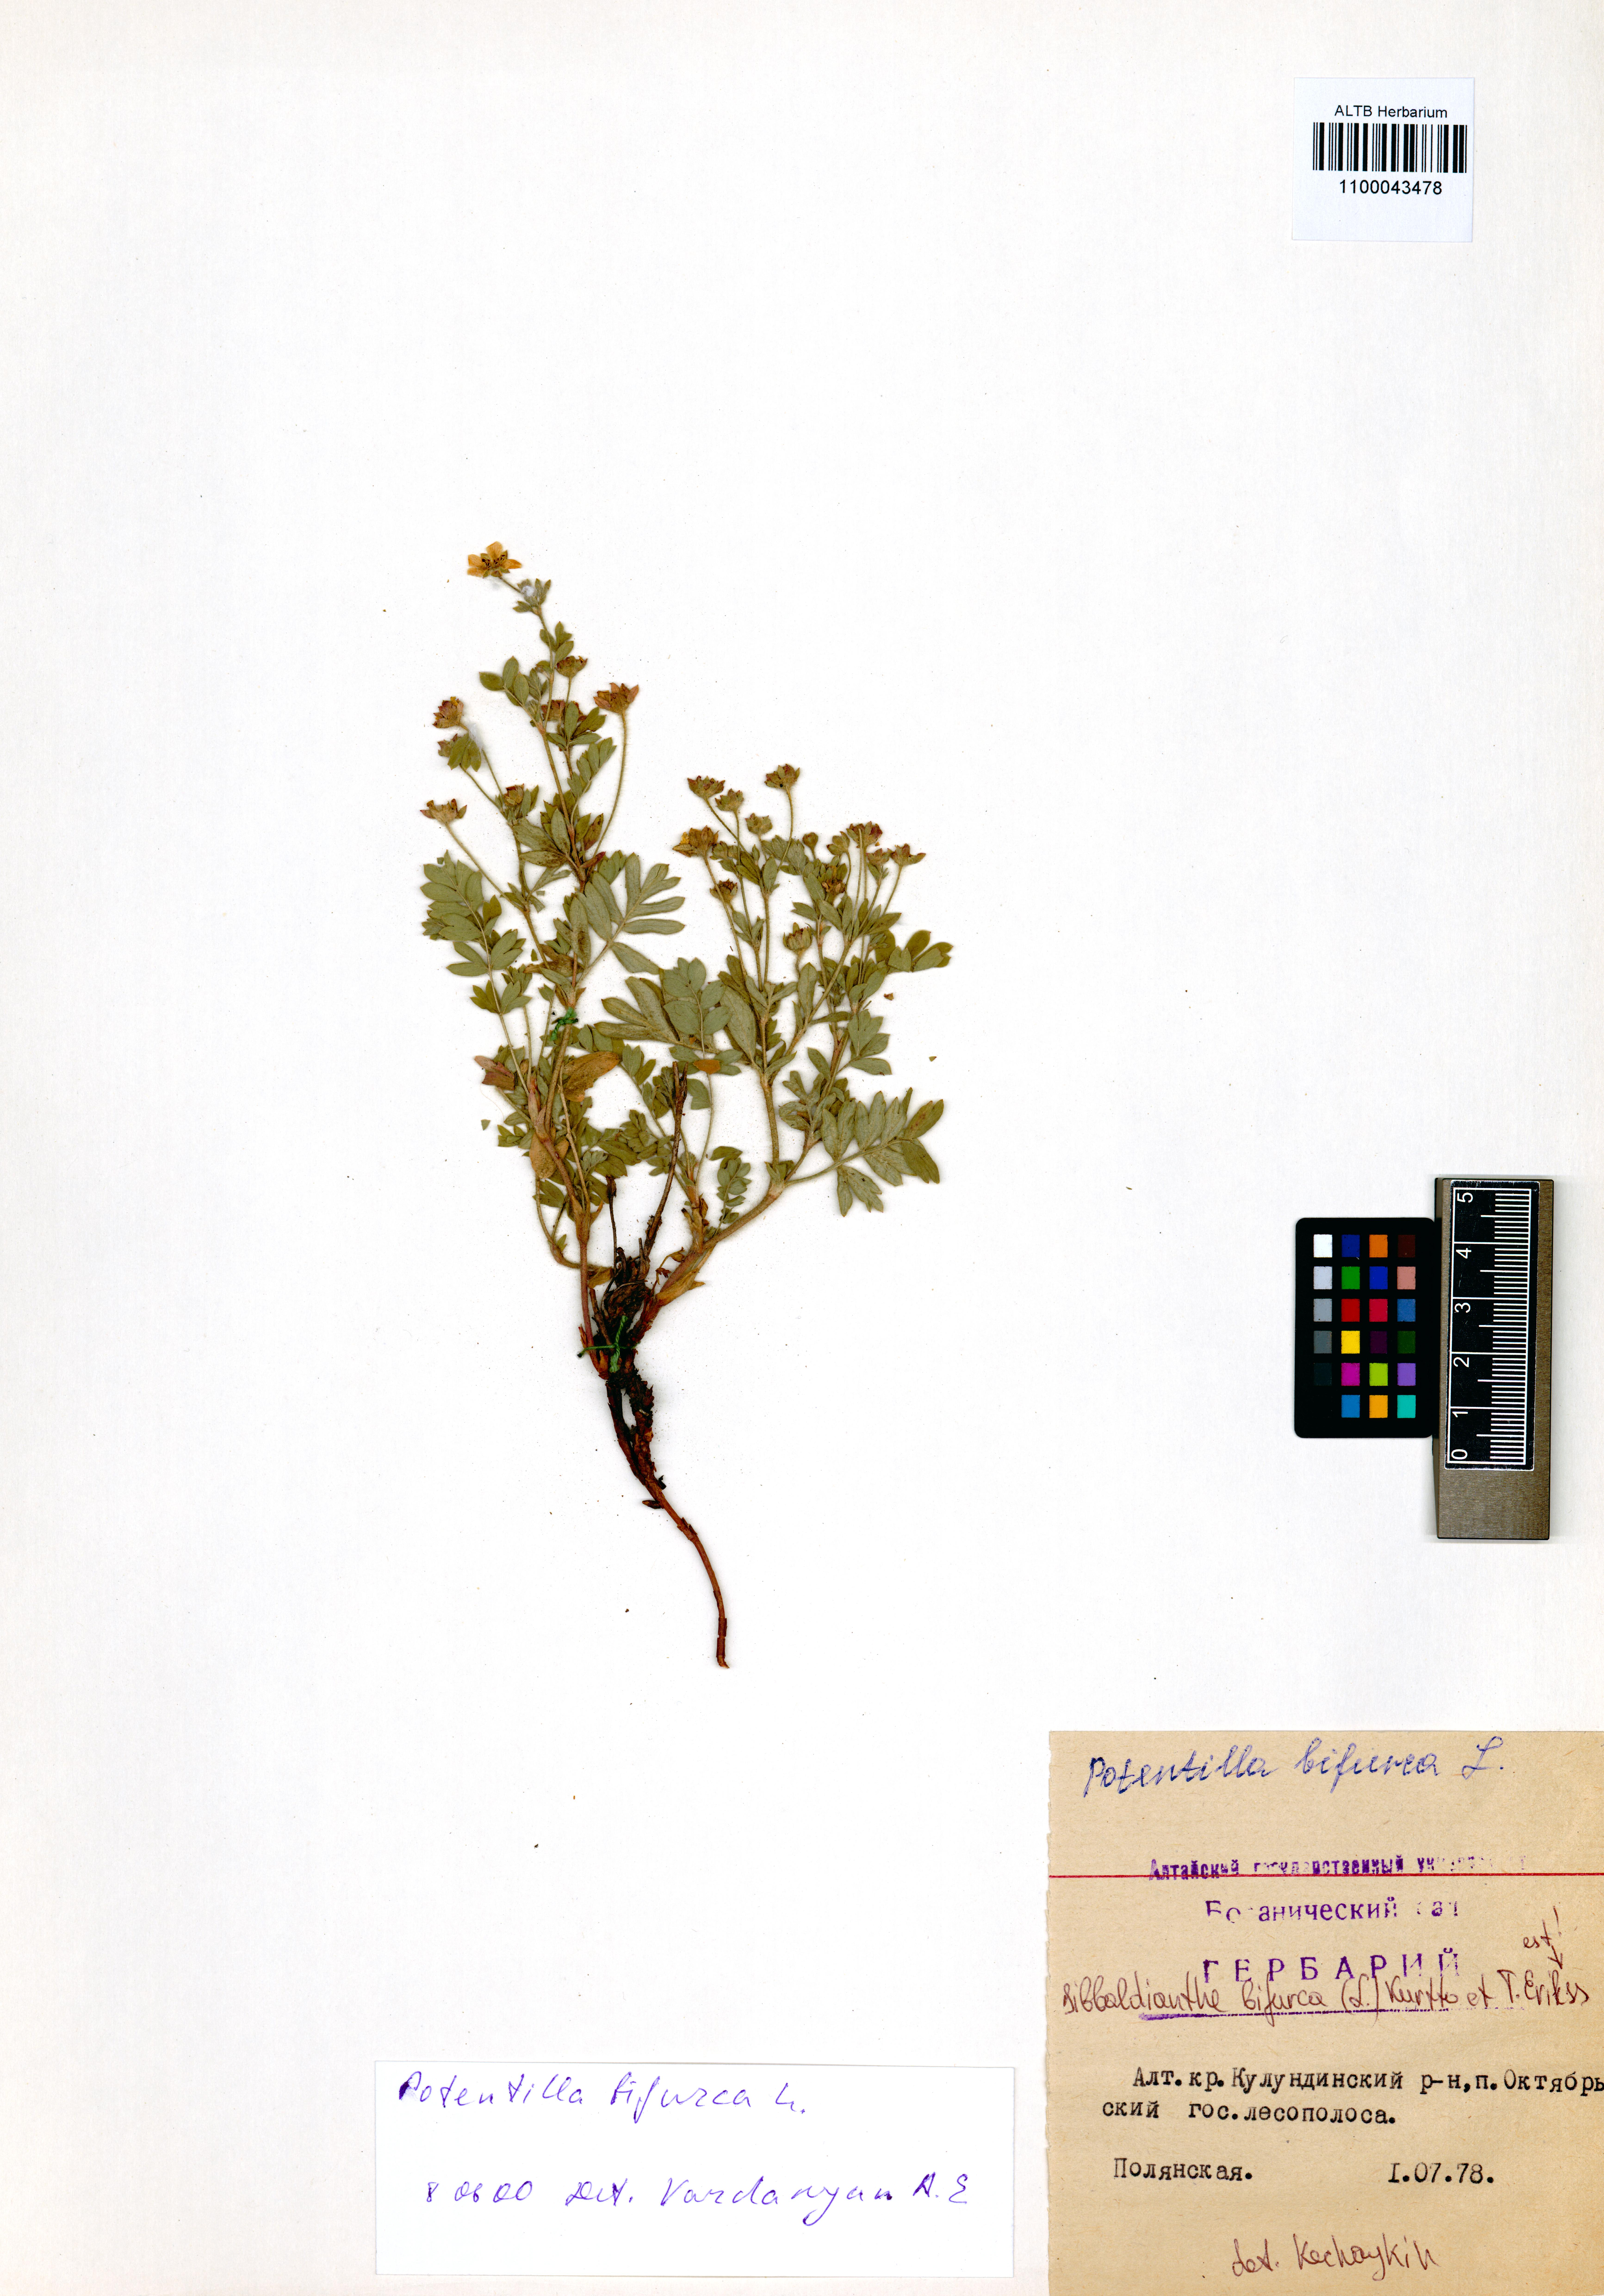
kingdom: Plantae
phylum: Tracheophyta
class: Magnoliopsida
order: Rosales
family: Rosaceae
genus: Sibbaldianthe
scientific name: Sibbaldianthe bifurca
